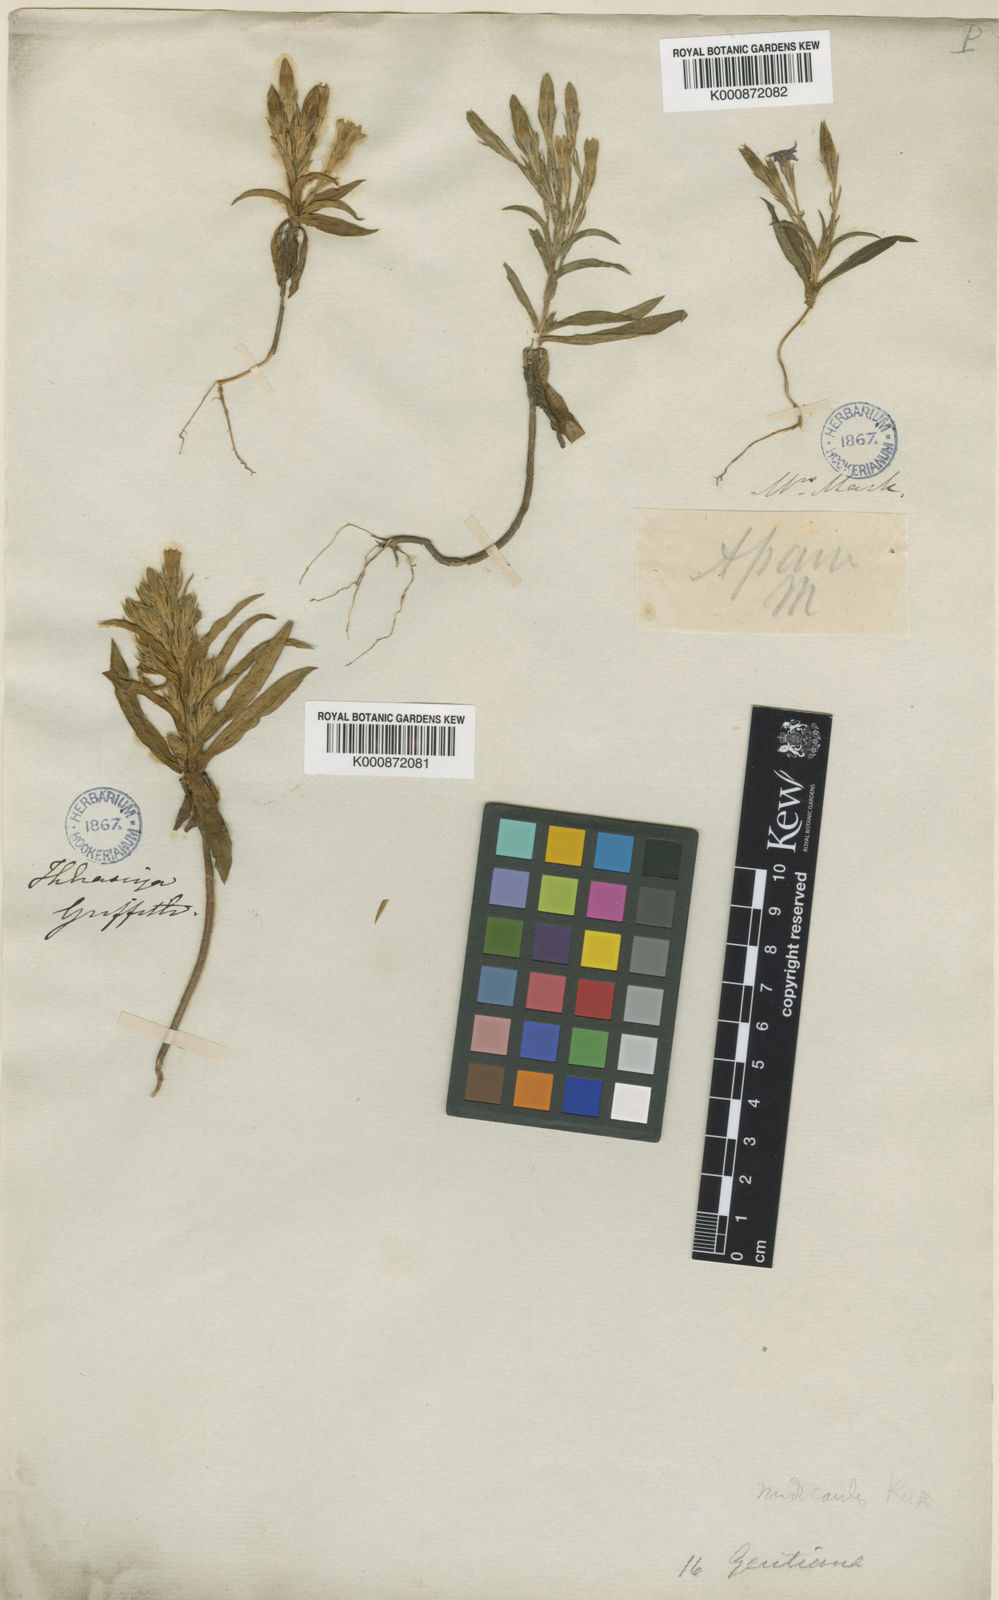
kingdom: Plantae
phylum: Tracheophyta
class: Magnoliopsida
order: Gentianales
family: Gentianaceae
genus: Gentiana
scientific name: Gentiana nudicaulis
